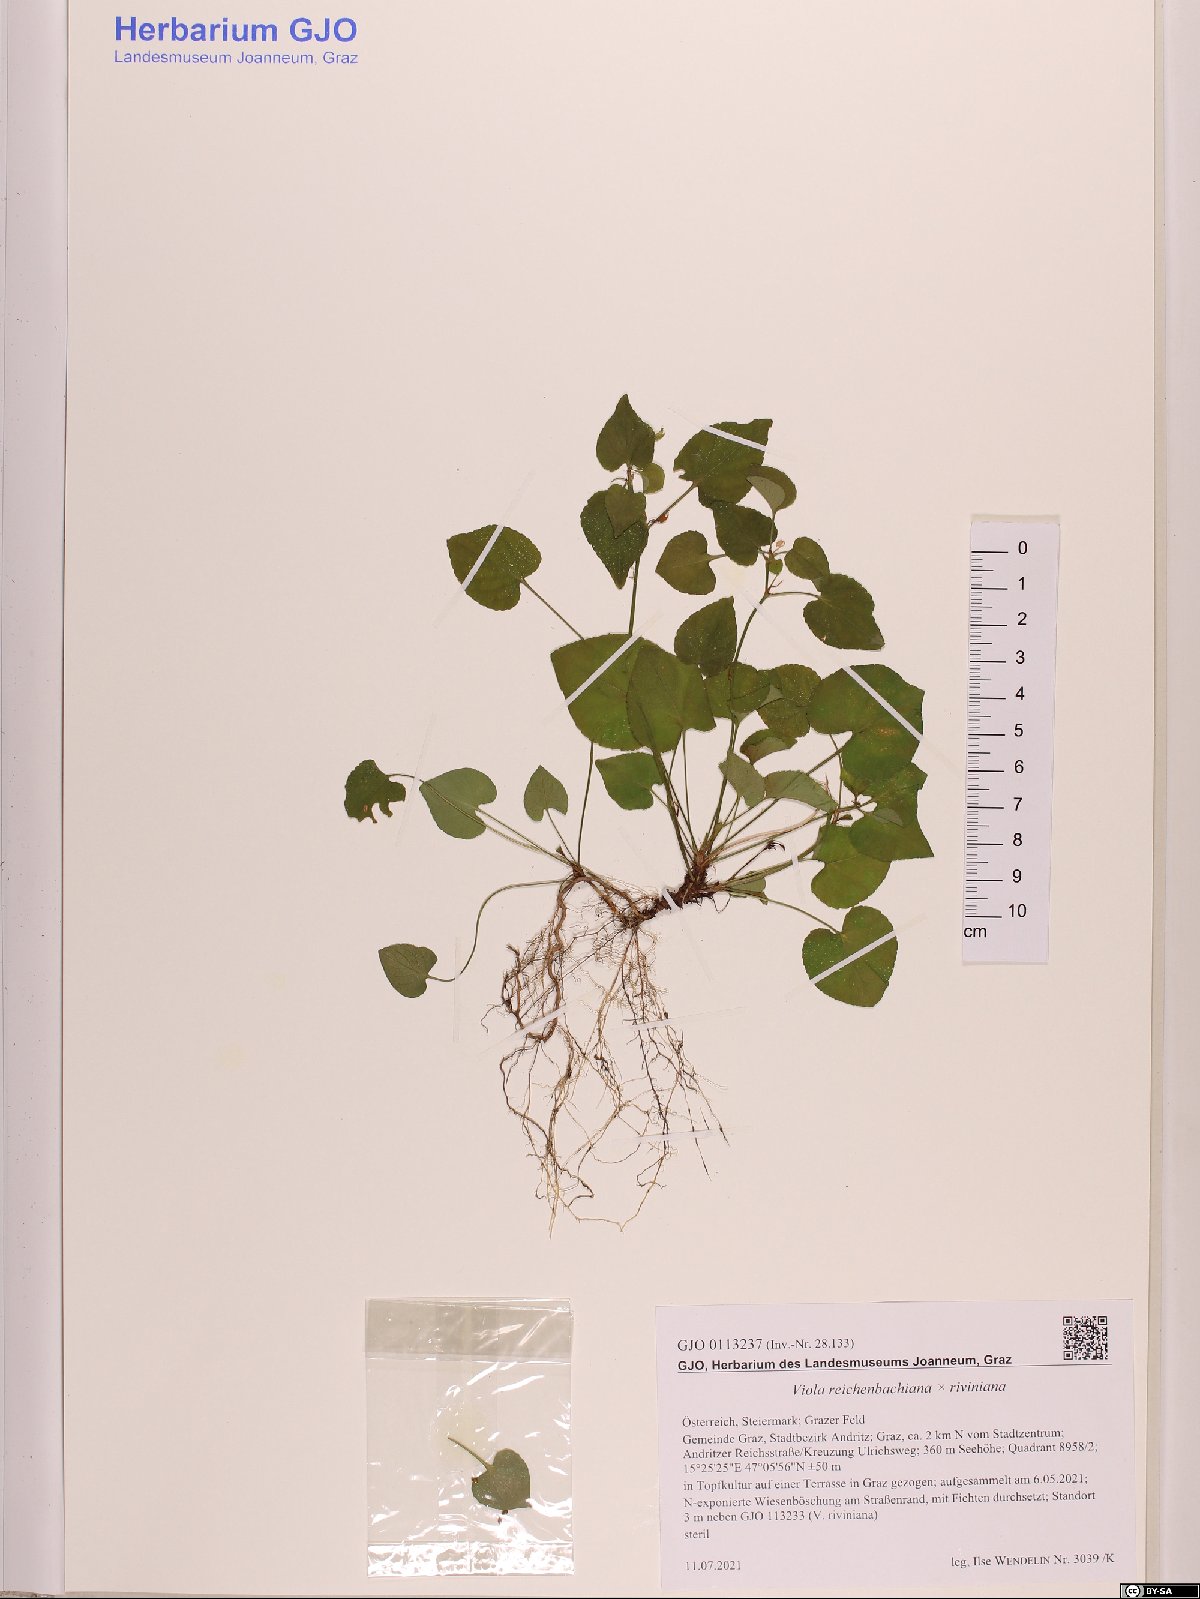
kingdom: Plantae
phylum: Tracheophyta
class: Magnoliopsida
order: Malpighiales
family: Violaceae
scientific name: Violaceae
